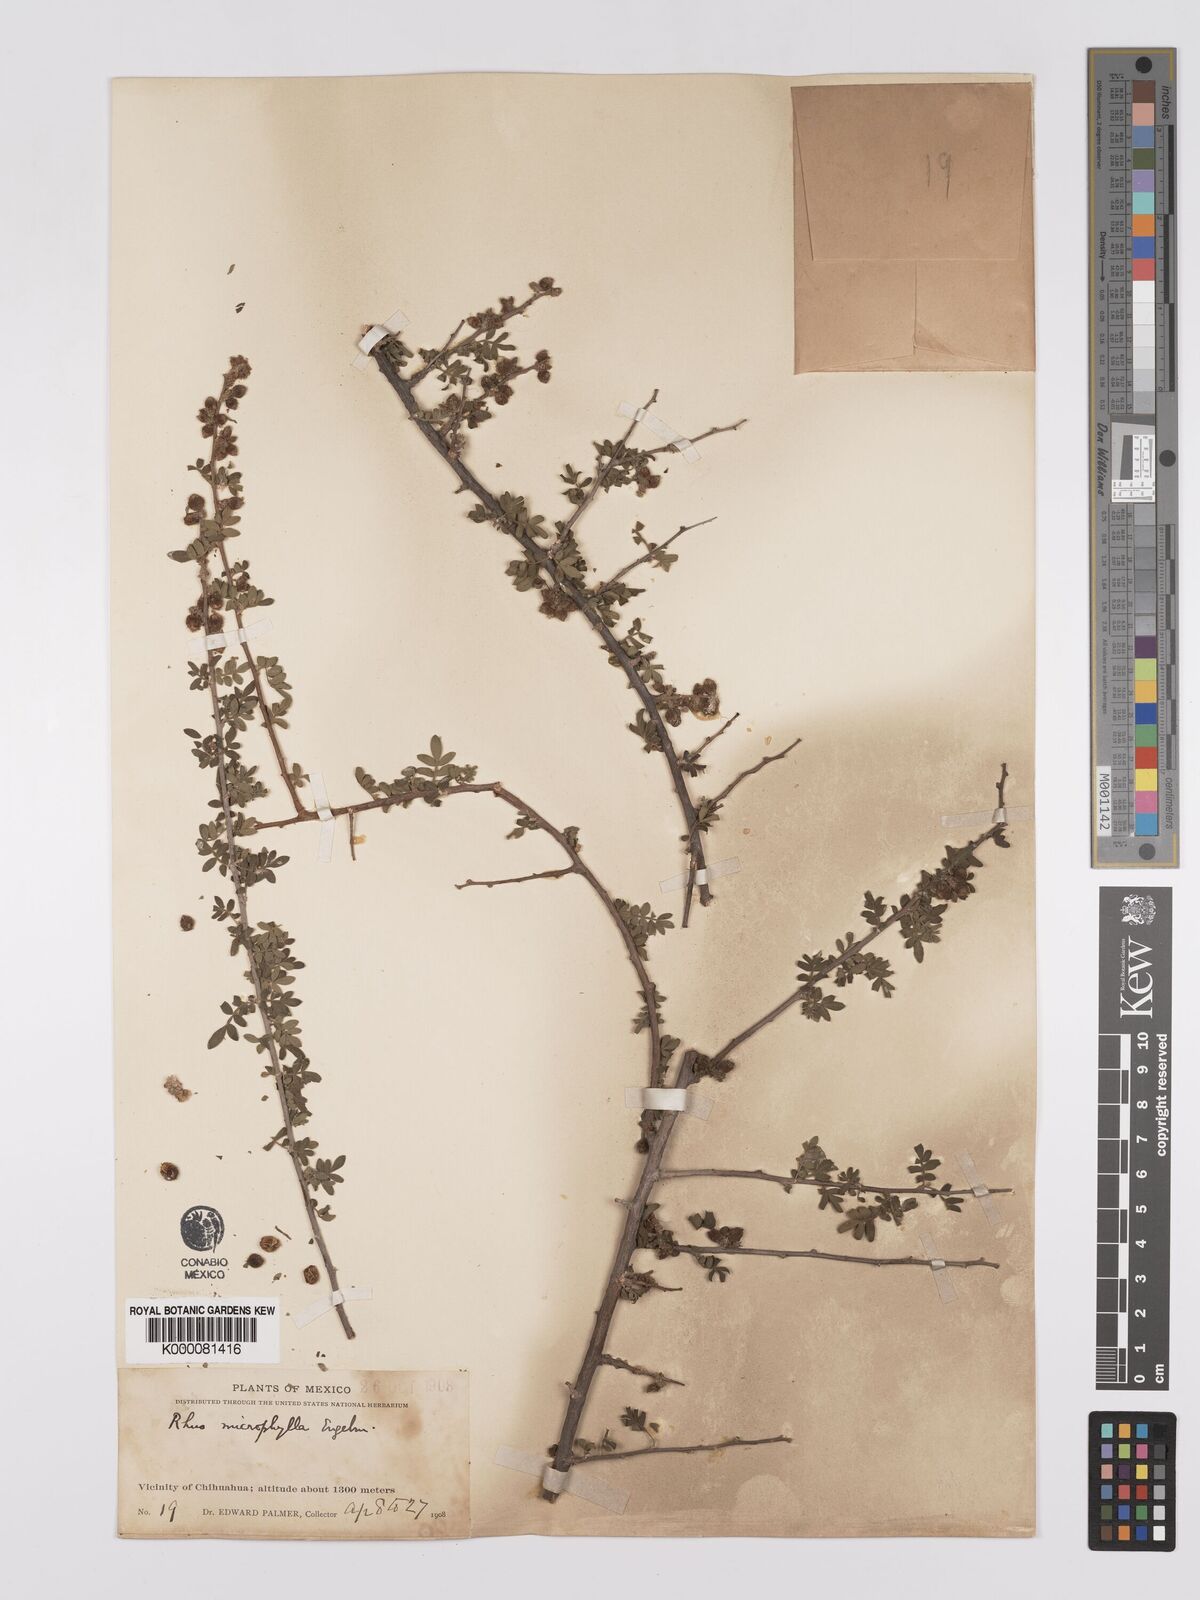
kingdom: Plantae
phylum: Tracheophyta
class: Magnoliopsida
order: Sapindales
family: Anacardiaceae
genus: Rhus
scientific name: Rhus
